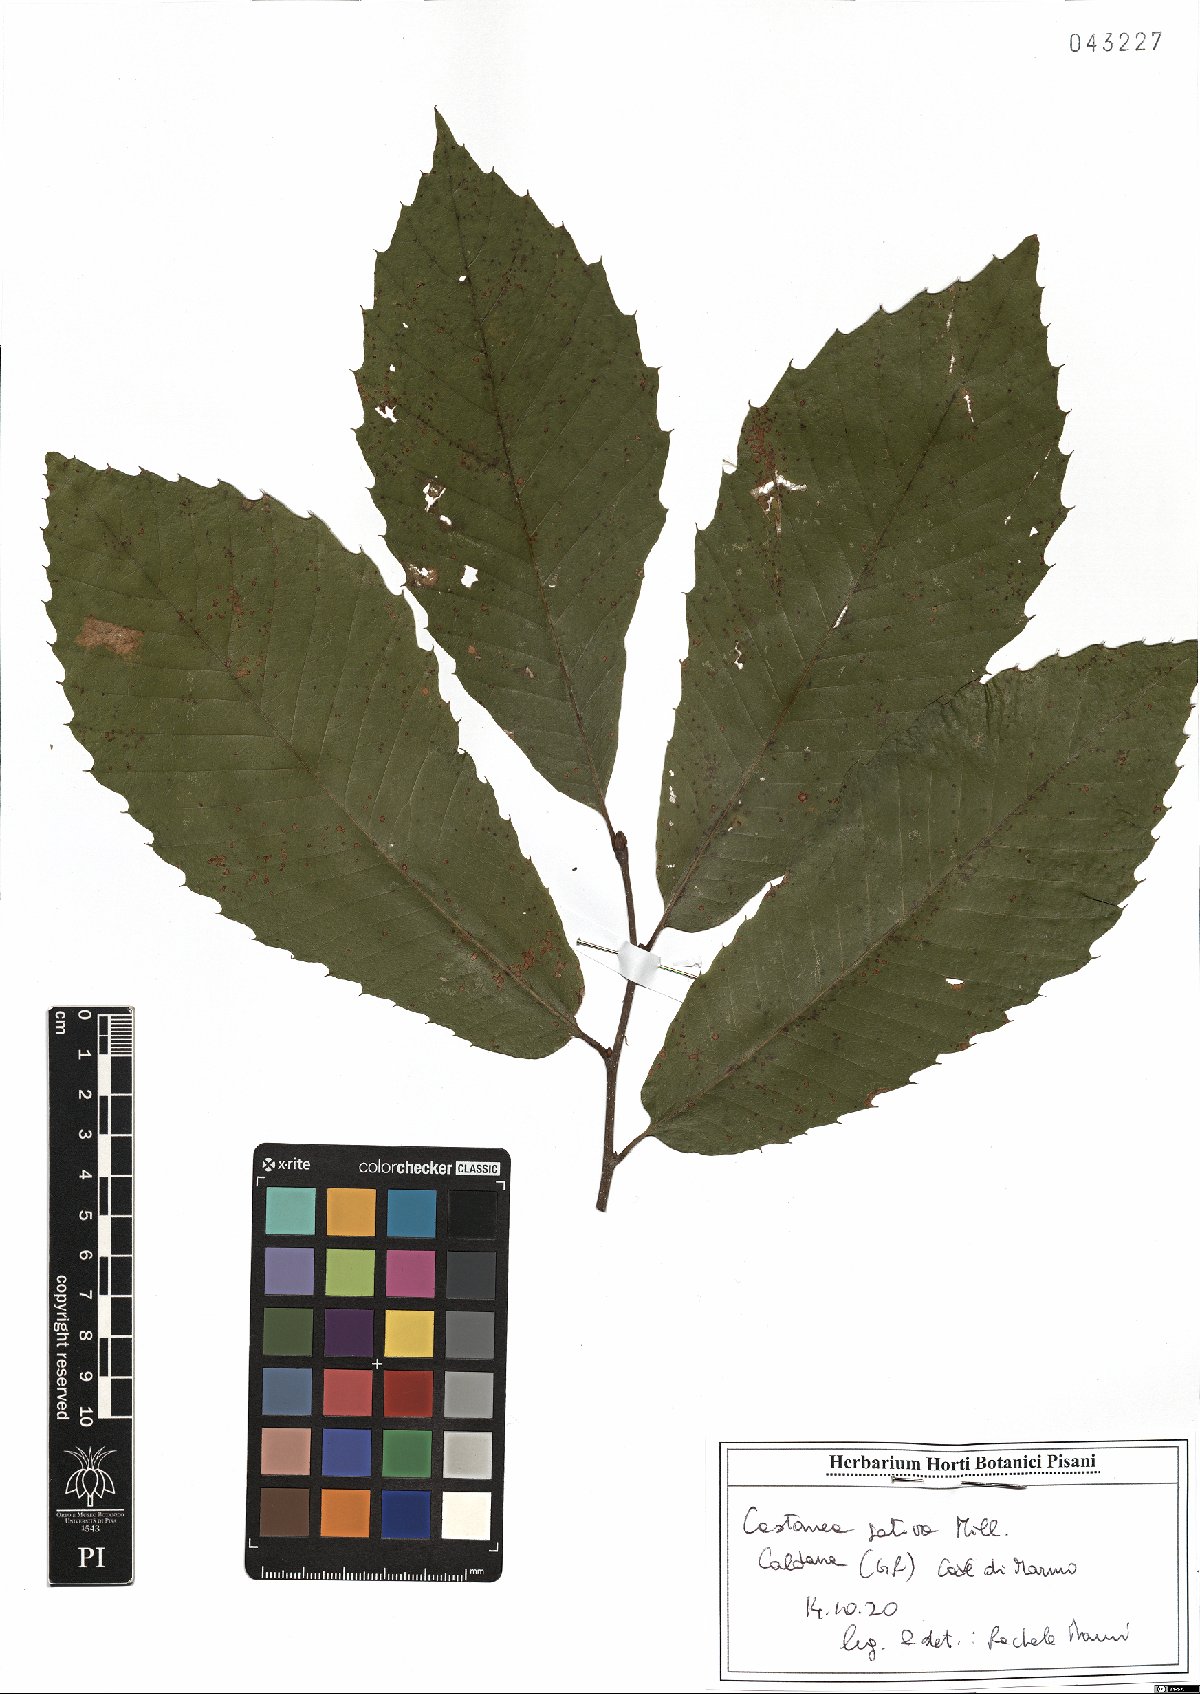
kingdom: Plantae
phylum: Tracheophyta
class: Magnoliopsida
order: Fagales
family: Fagaceae
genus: Castanea
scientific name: Castanea sativa
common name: Sweet chestnut
